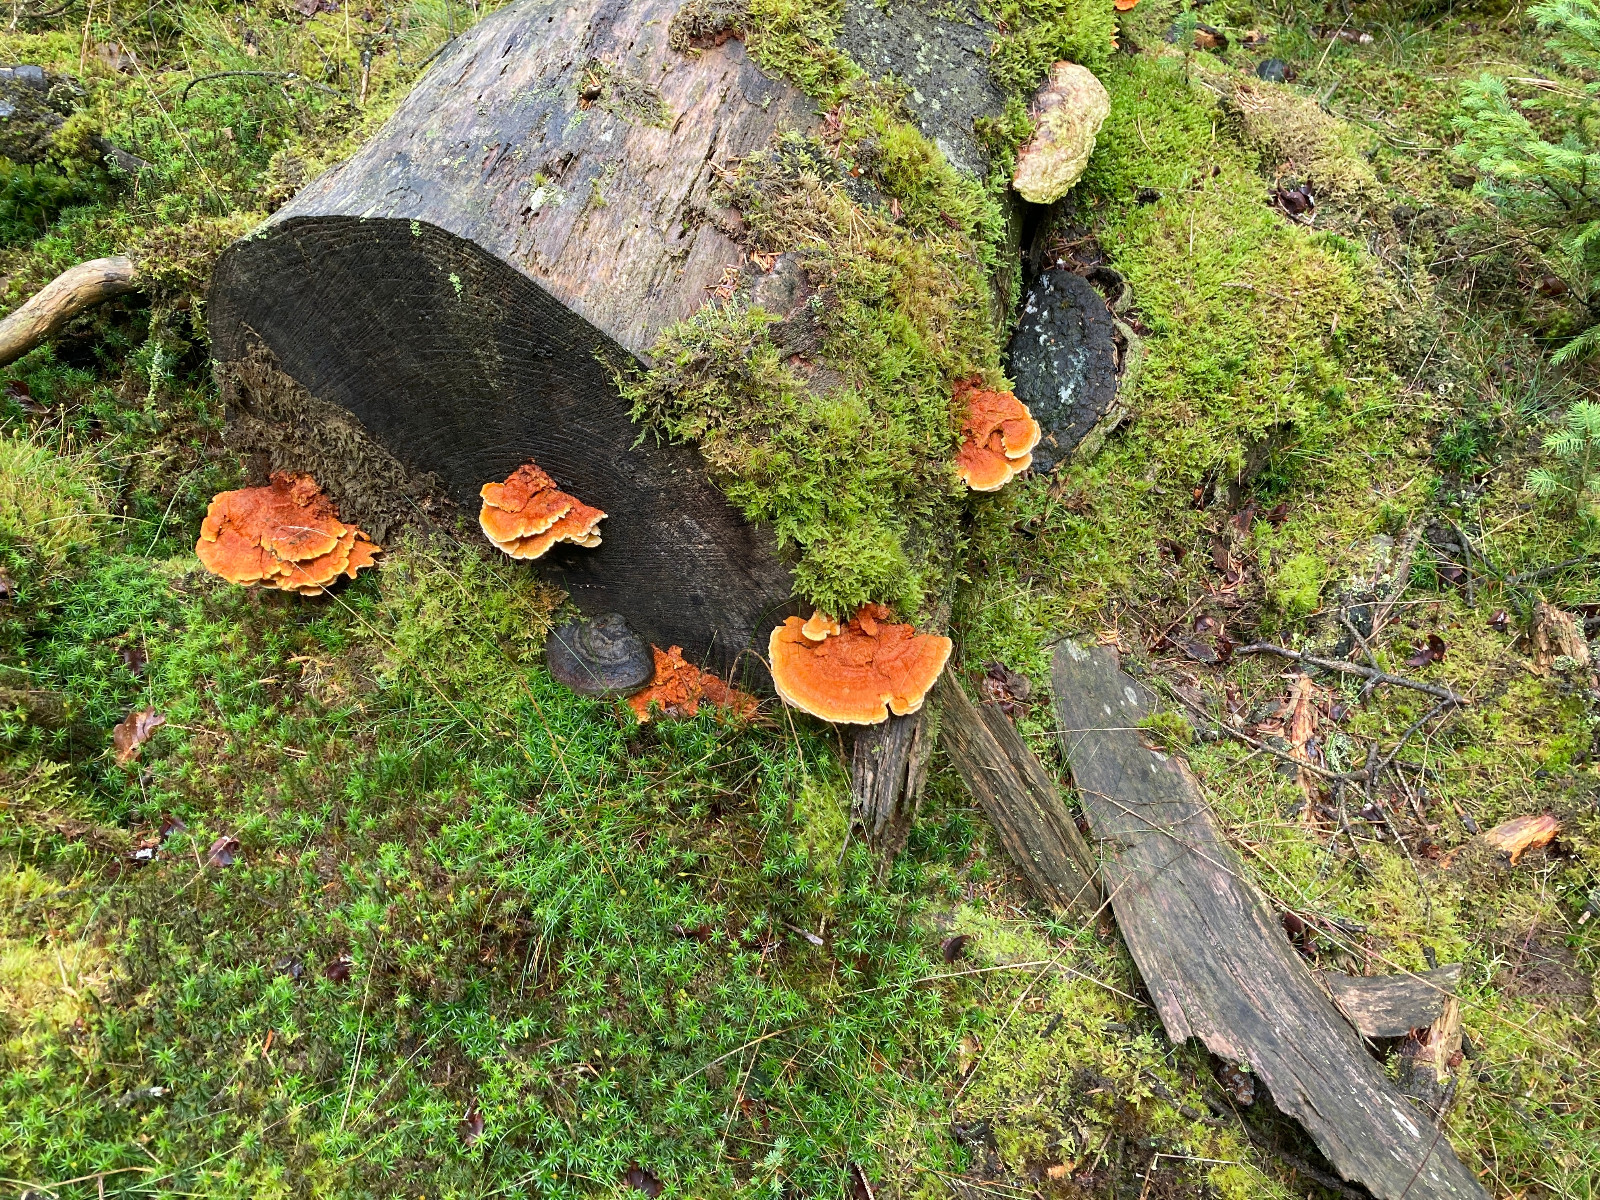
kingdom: Fungi
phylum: Basidiomycota
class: Agaricomycetes
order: Polyporales
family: Pycnoporellaceae
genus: Pycnoporellus
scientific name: Pycnoporellus fulgens
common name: flammeporesvamp
